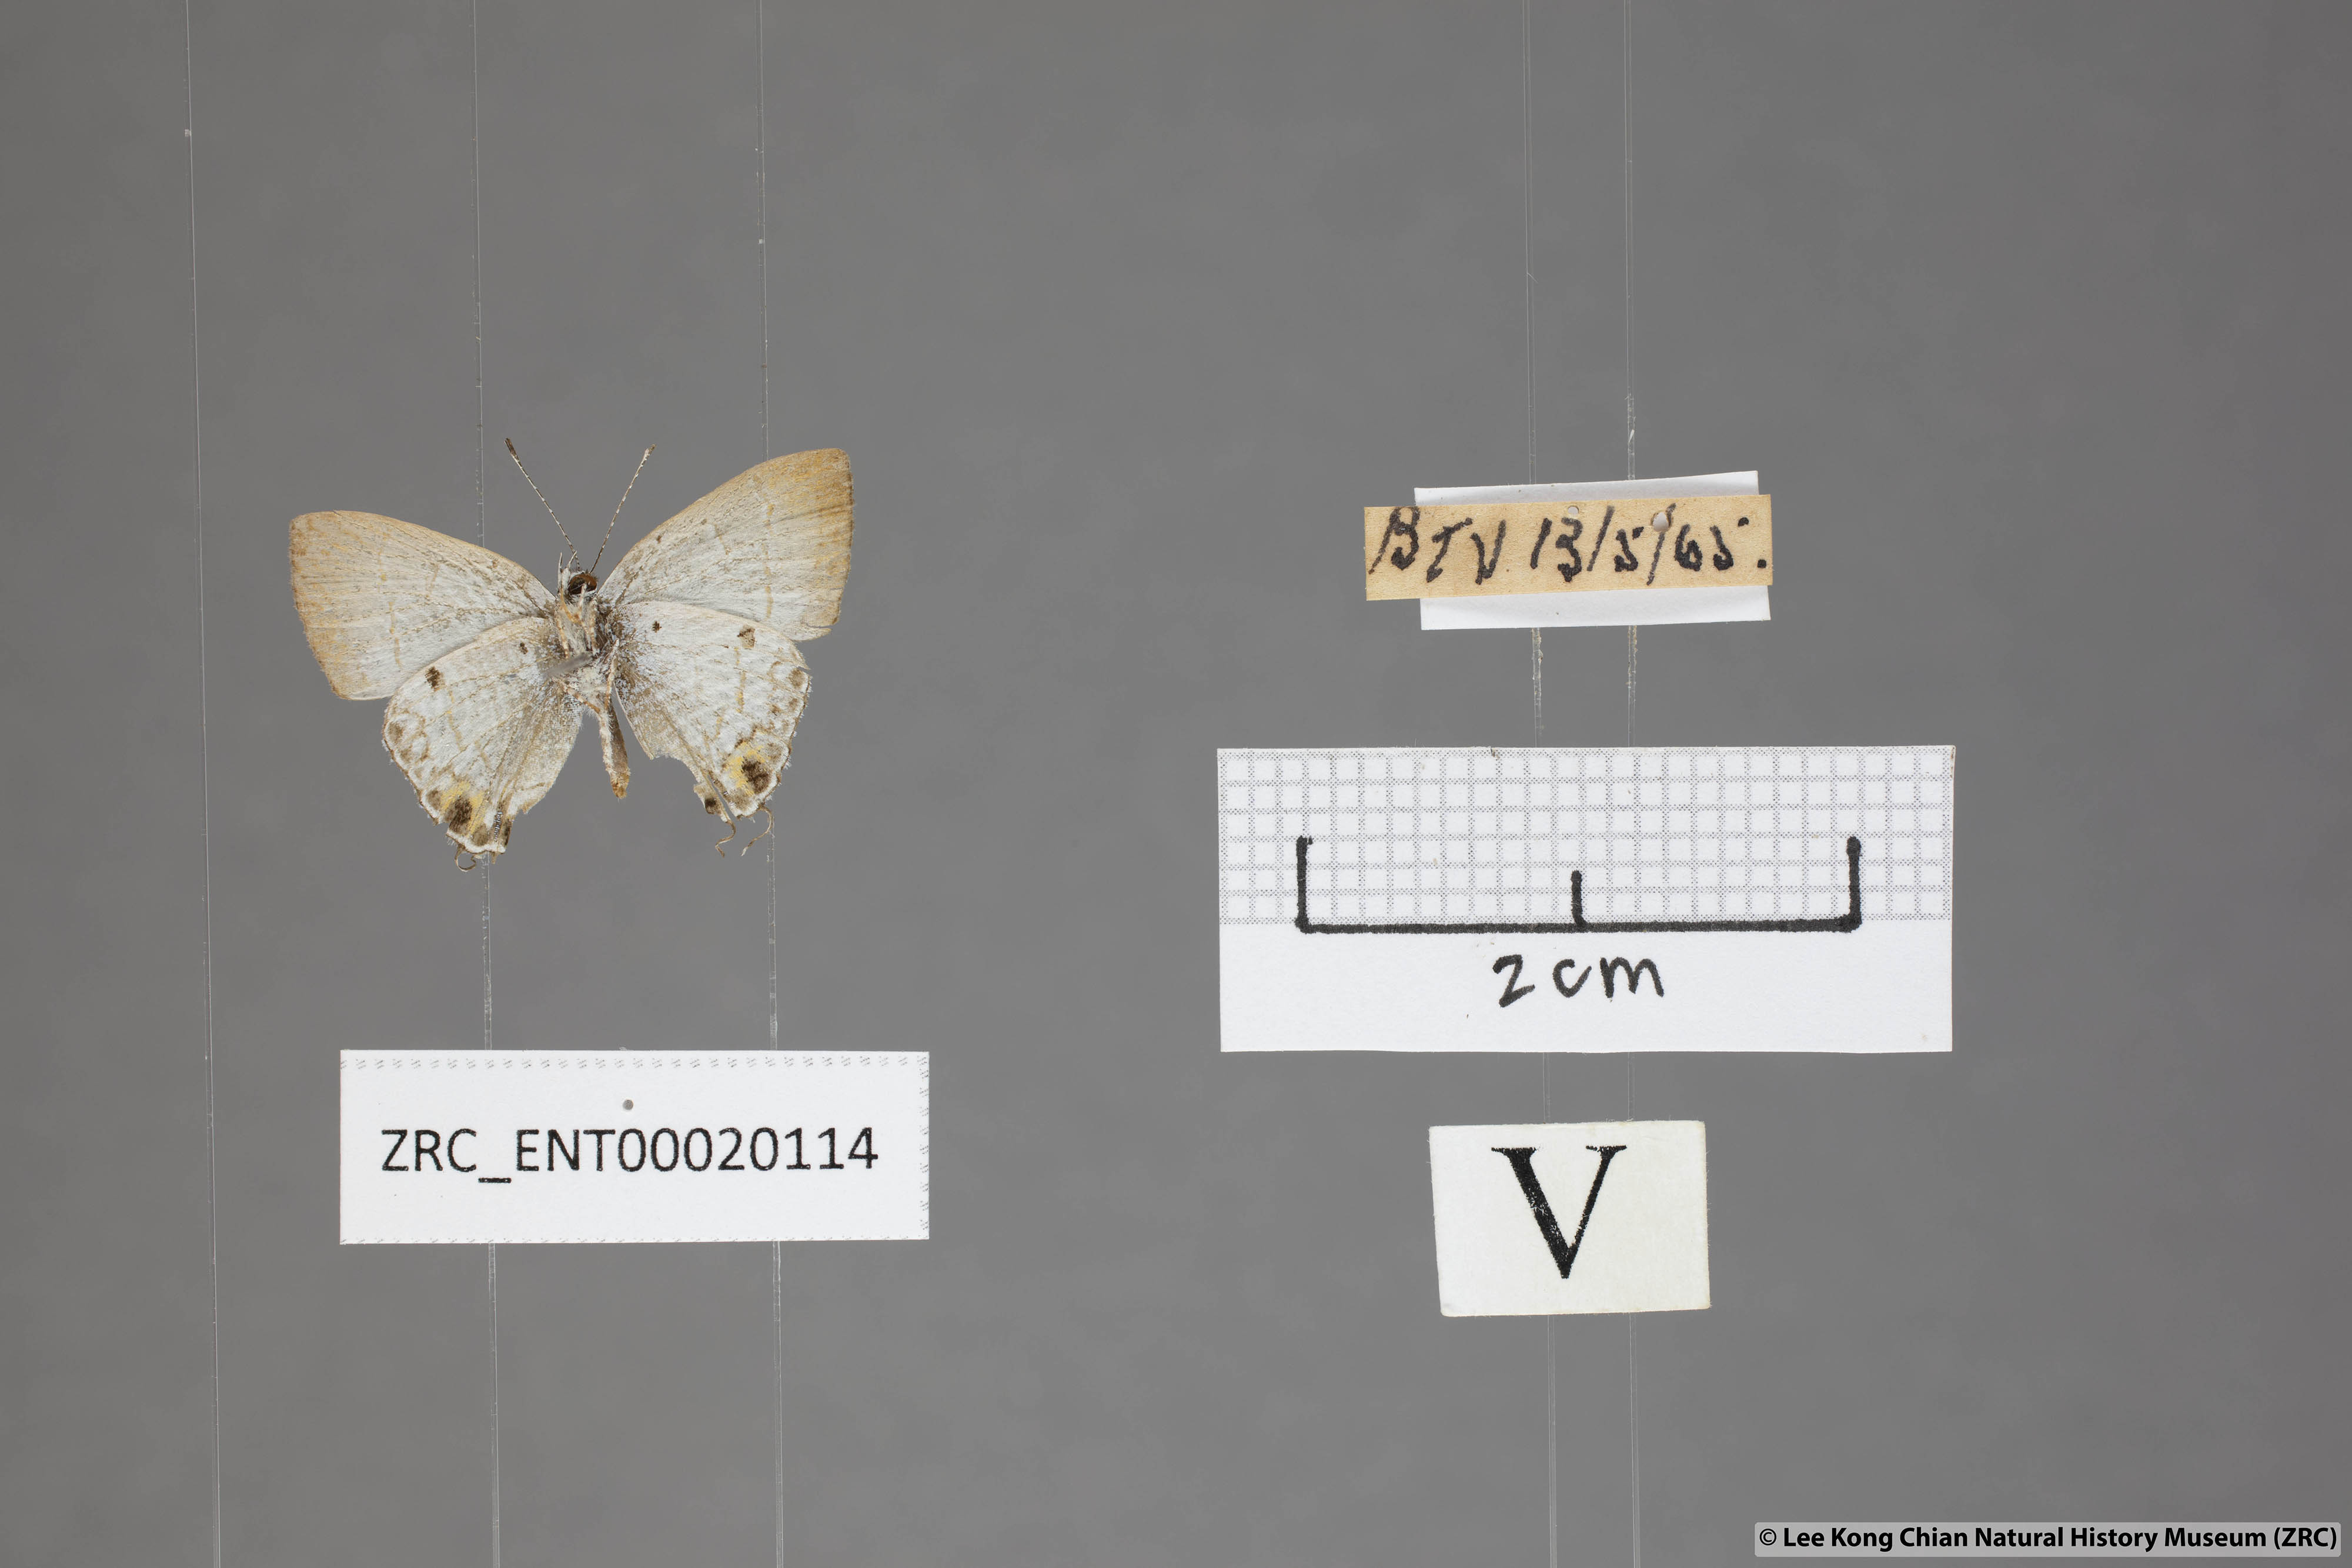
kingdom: Animalia
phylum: Arthropoda
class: Insecta
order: Lepidoptera
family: Lycaenidae
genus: Chliaria
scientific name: Chliaria othona
